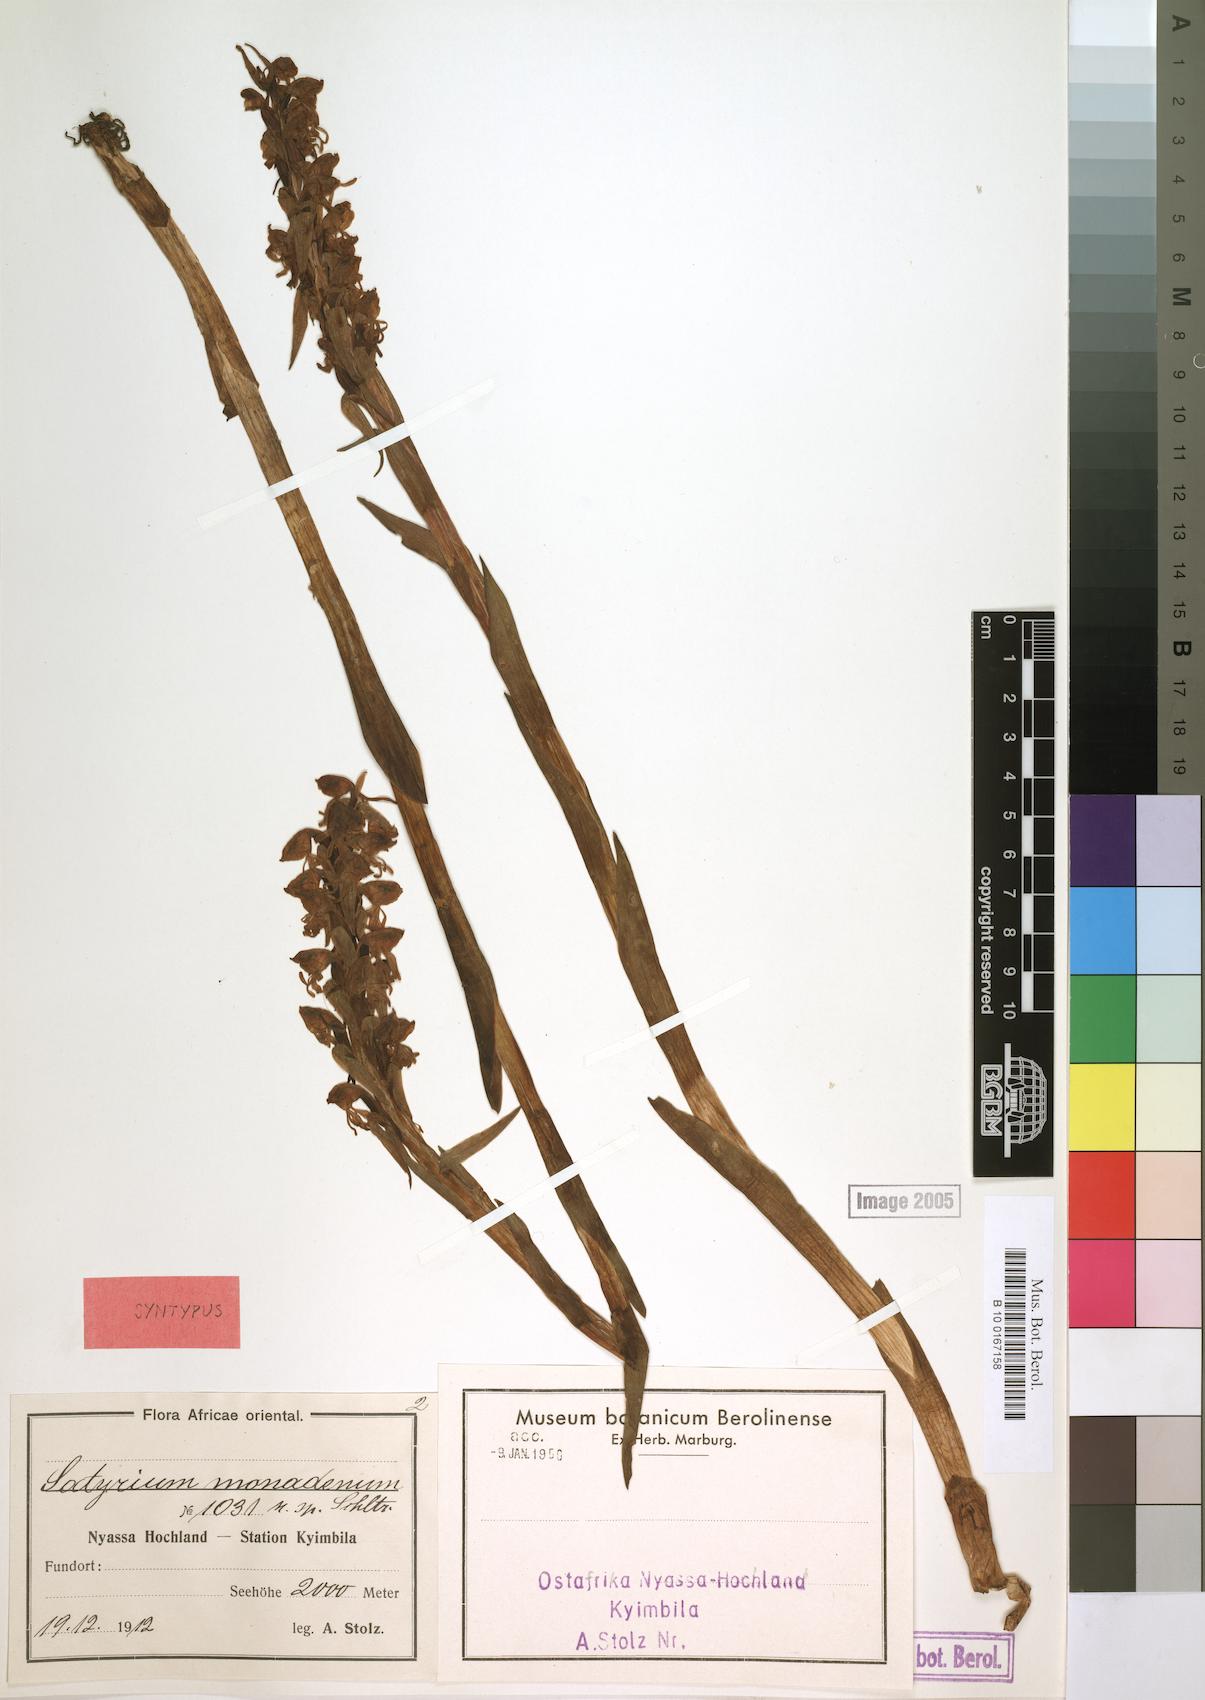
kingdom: Plantae
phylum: Tracheophyta
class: Liliopsida
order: Asparagales
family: Orchidaceae
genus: Satyrium
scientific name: Satyrium monadenum
